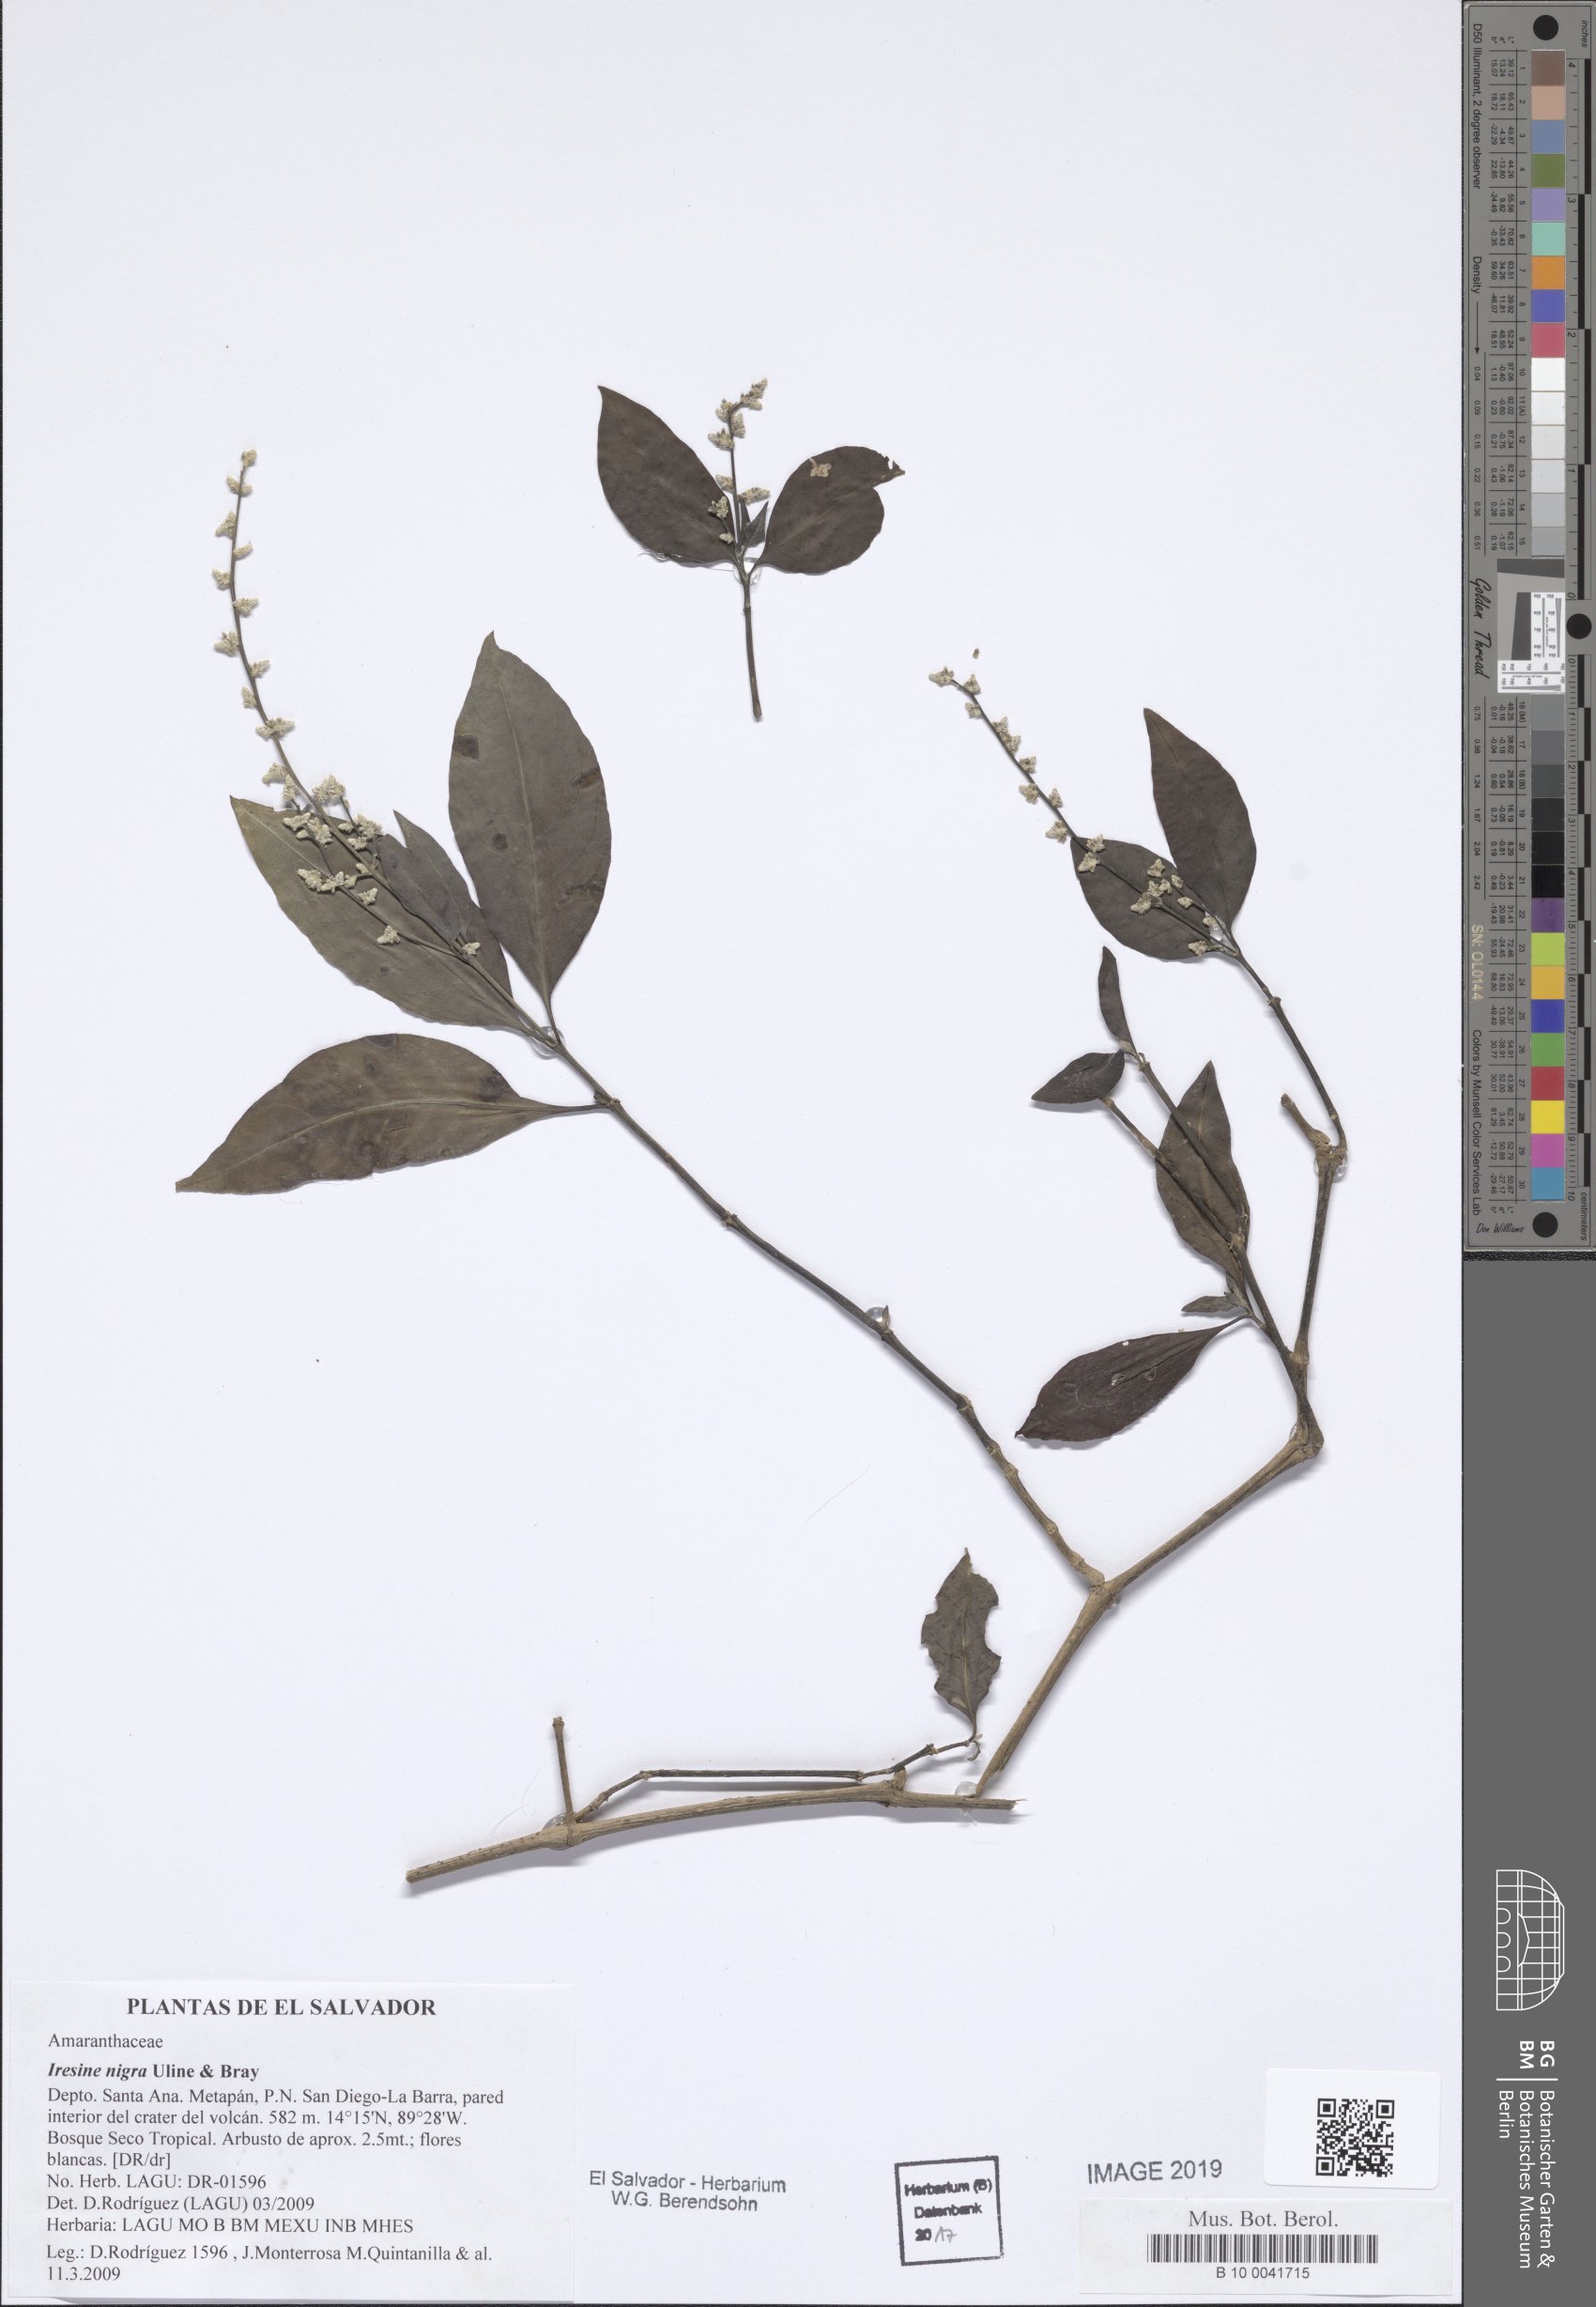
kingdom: Plantae
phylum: Tracheophyta
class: Magnoliopsida
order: Caryophyllales
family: Amaranthaceae
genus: Iresine
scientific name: Iresine nigra
